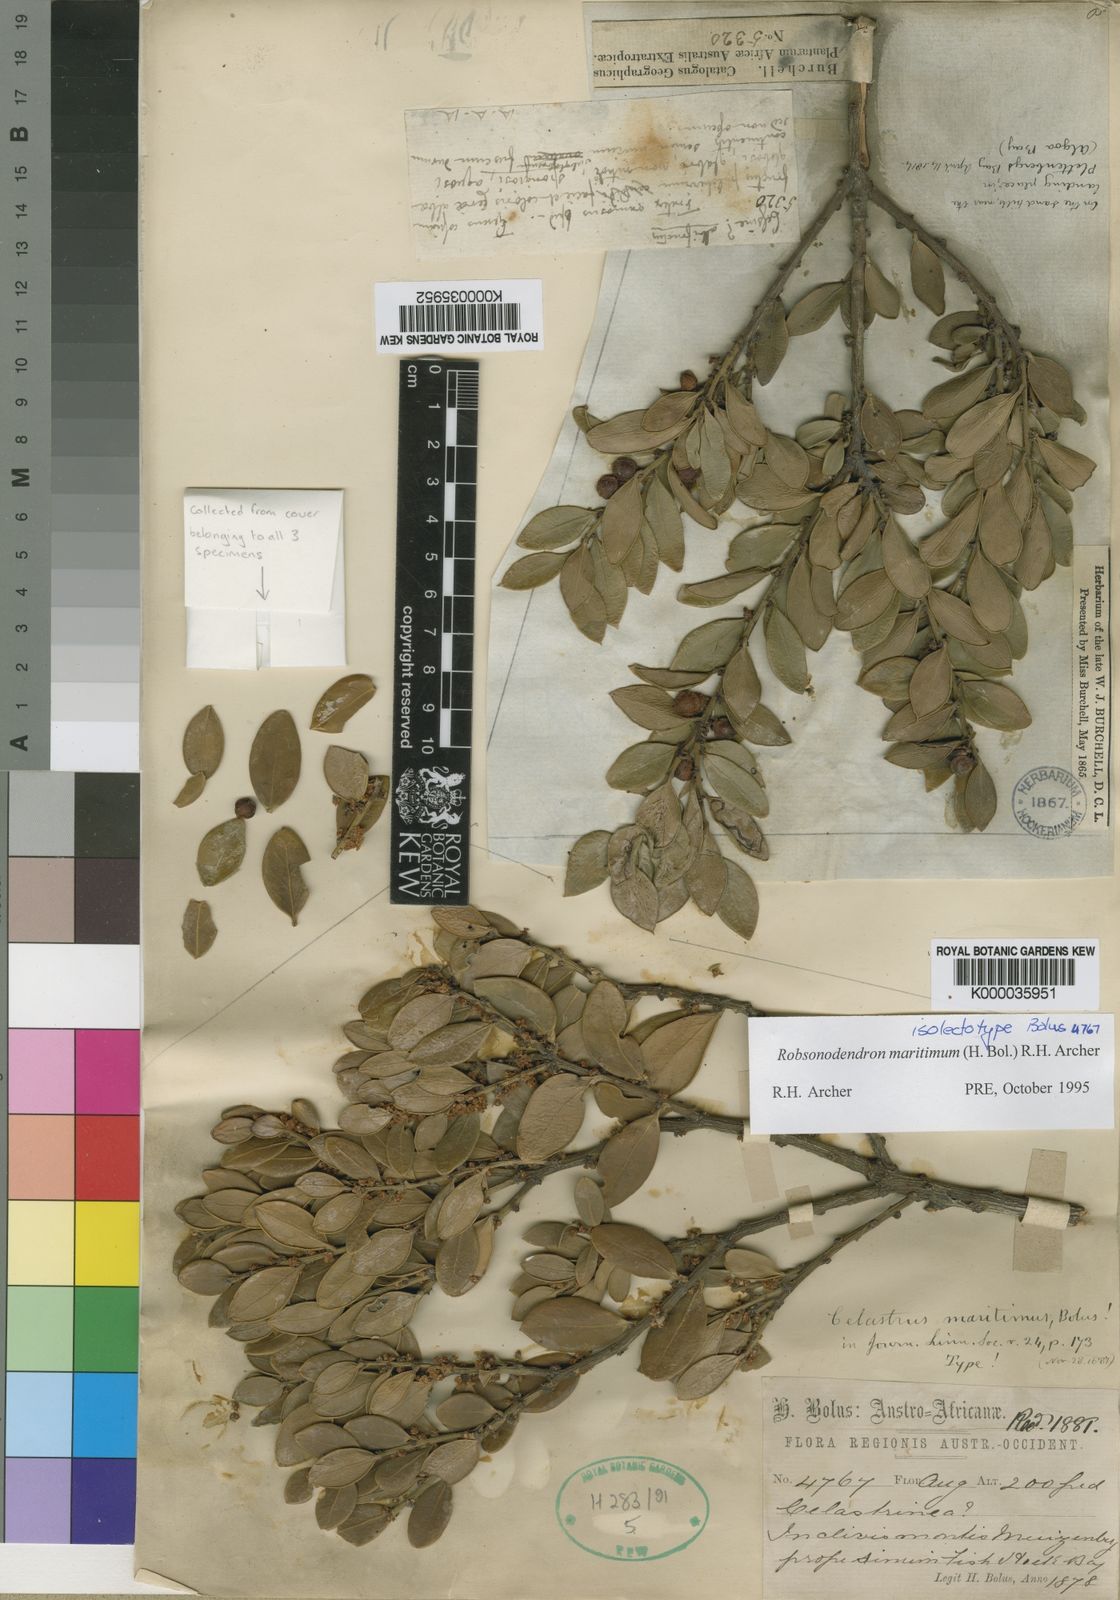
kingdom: Plantae
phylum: Tracheophyta
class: Magnoliopsida
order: Celastrales
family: Celastraceae
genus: Robsonodendron
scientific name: Robsonodendron maritimum
